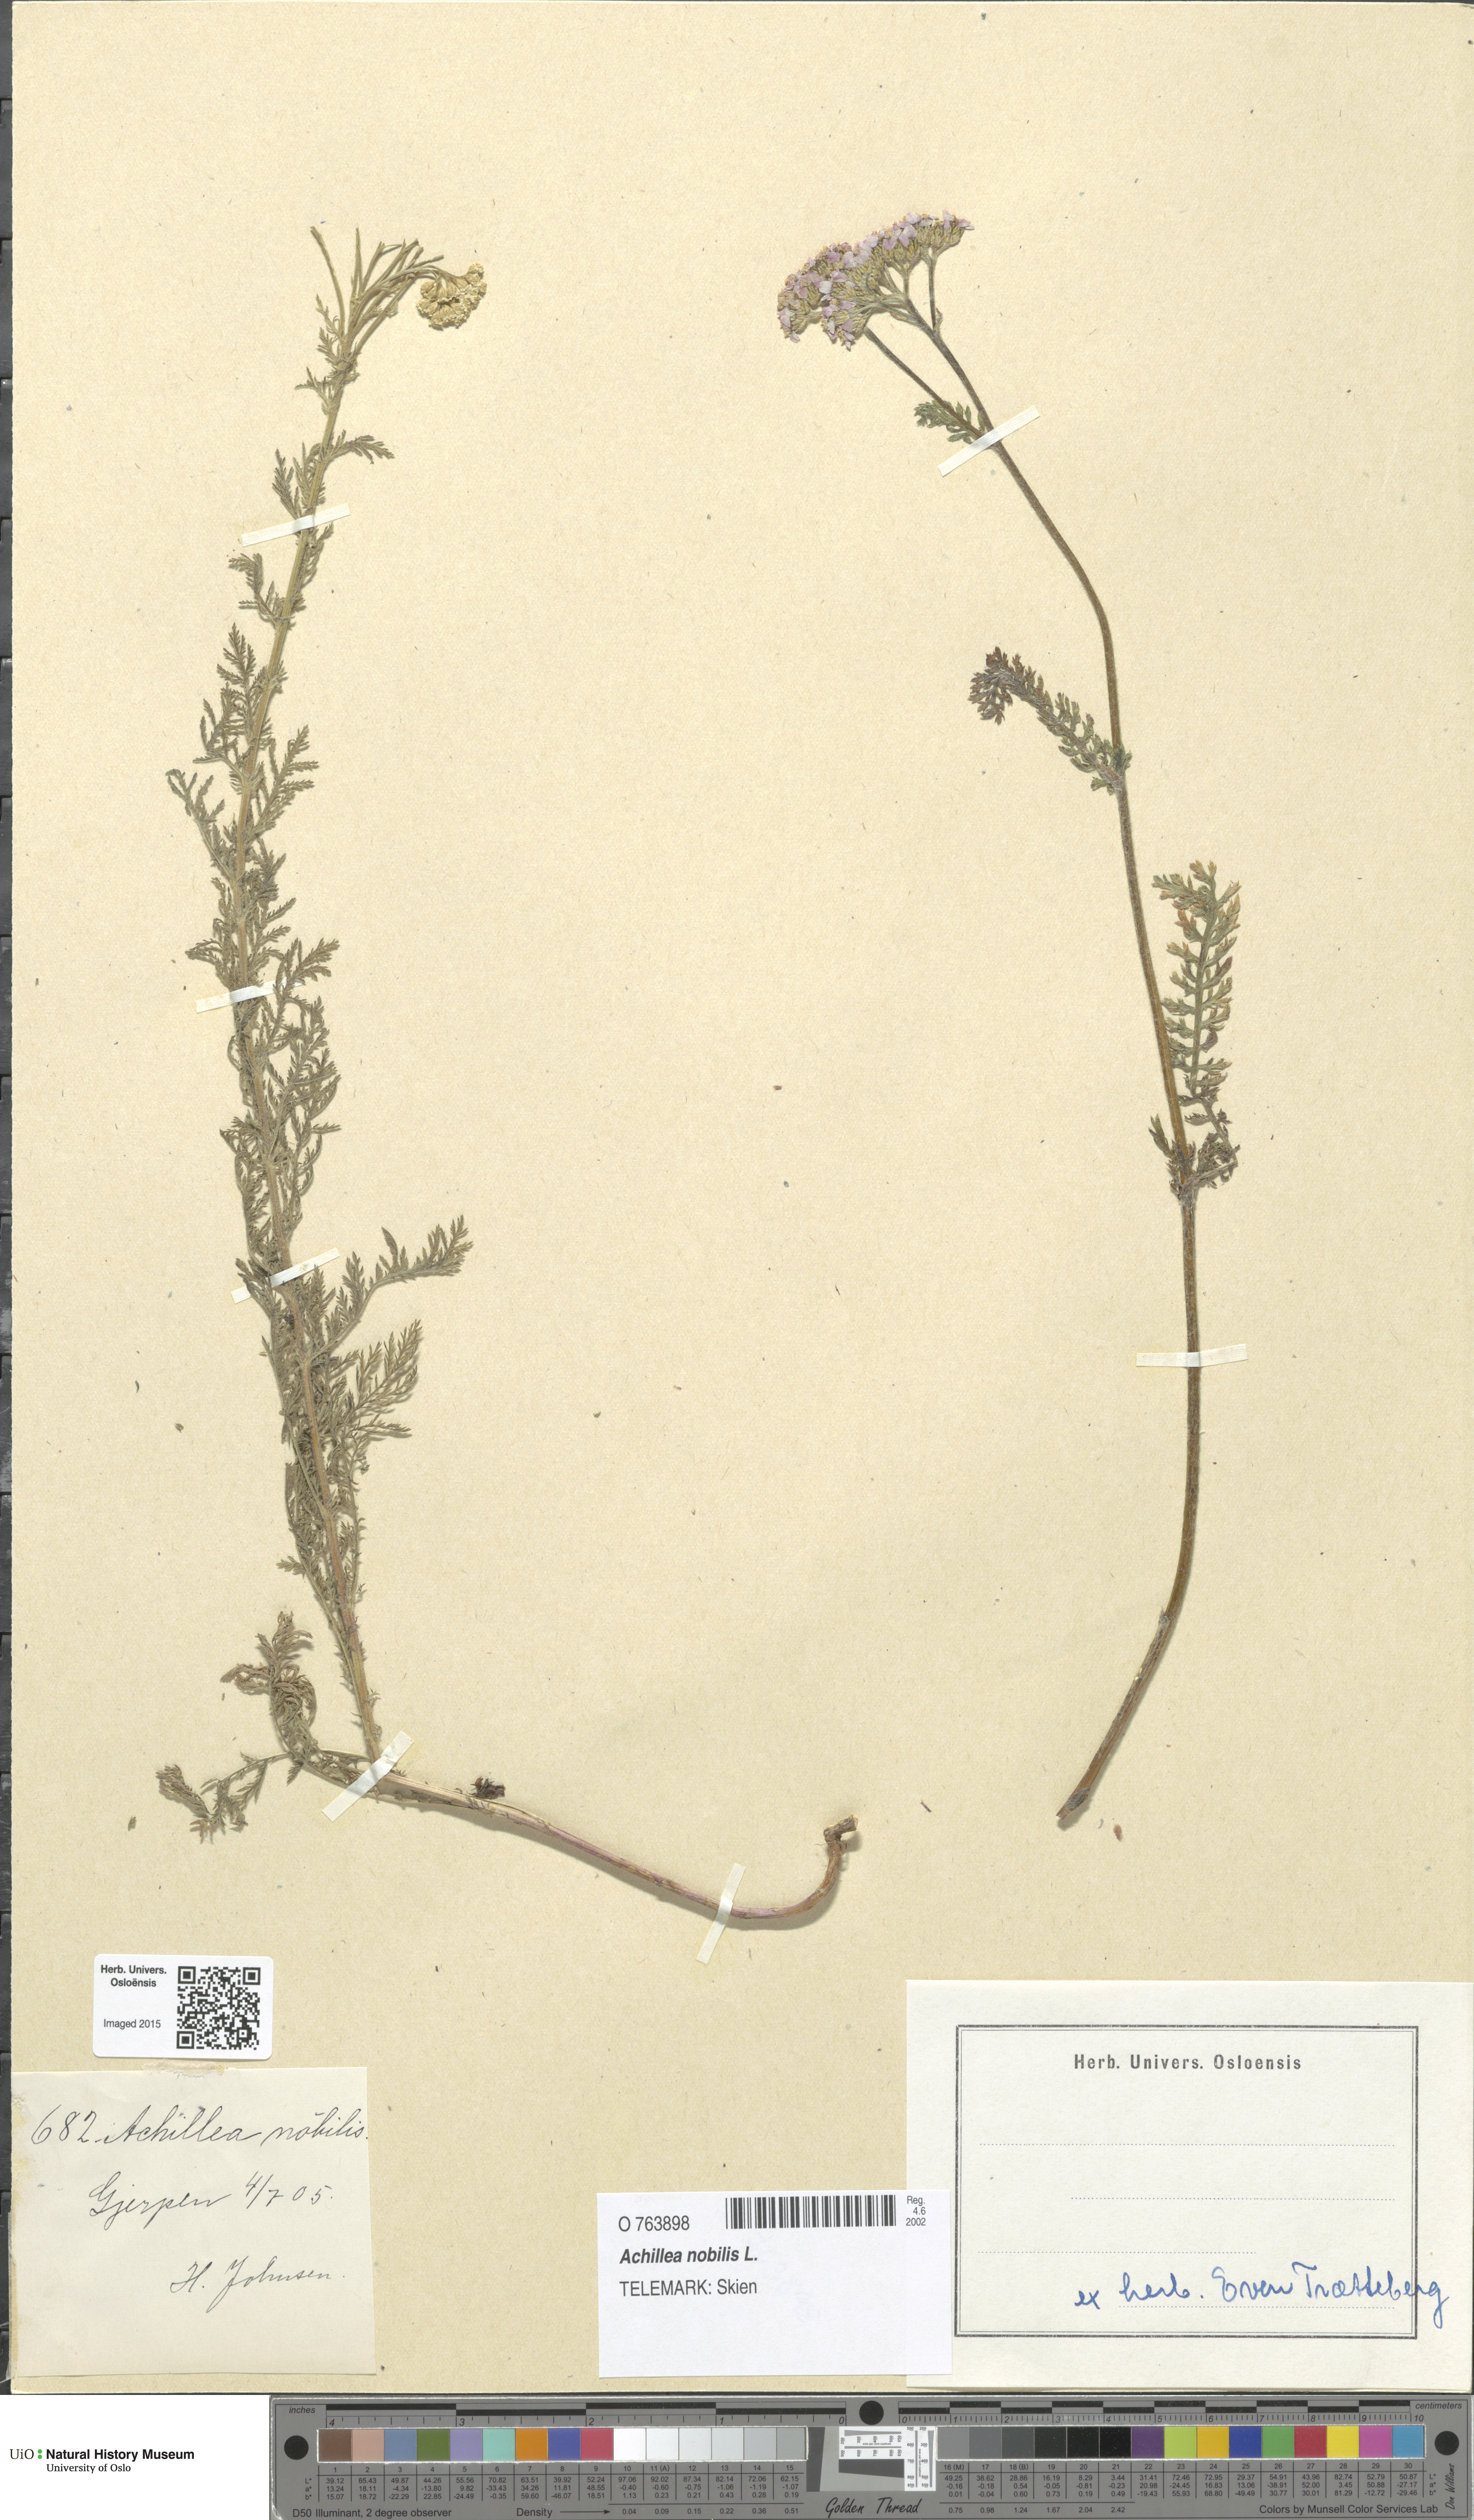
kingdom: Plantae
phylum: Tracheophyta
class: Magnoliopsida
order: Asterales
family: Asteraceae
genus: Achillea
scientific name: Achillea nobilis
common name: Noble yarrow
